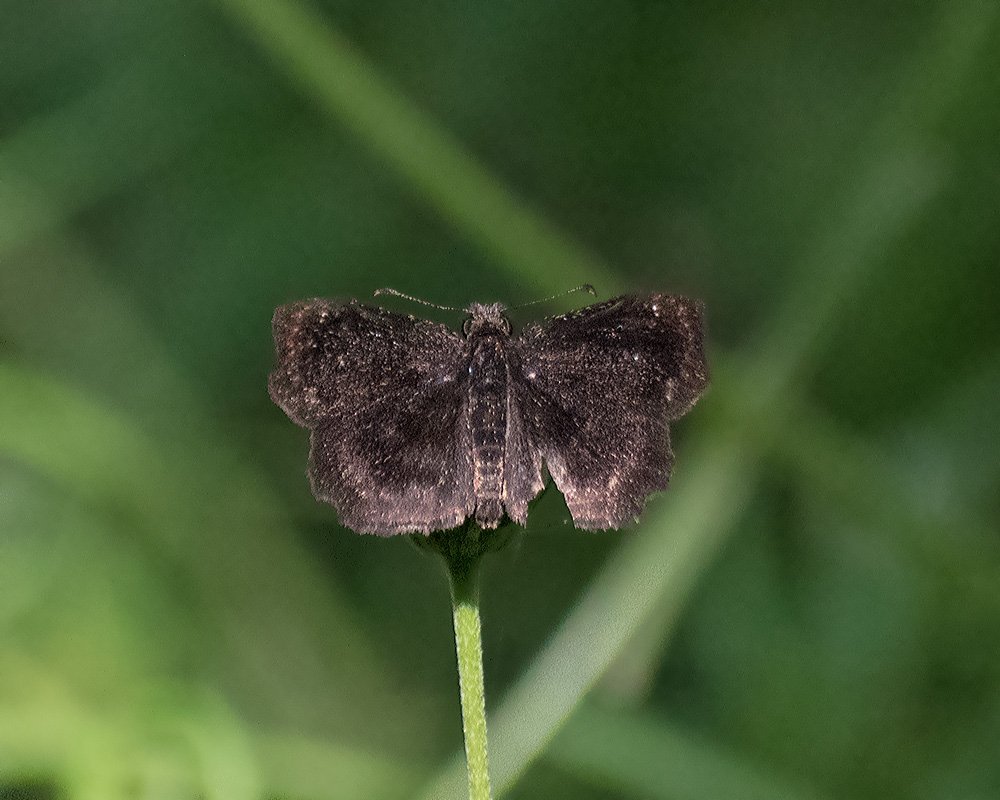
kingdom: Animalia
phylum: Arthropoda
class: Insecta
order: Lepidoptera
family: Hesperiidae
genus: Staphylus
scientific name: Staphylus mazans
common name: Mazans Scallopwing
